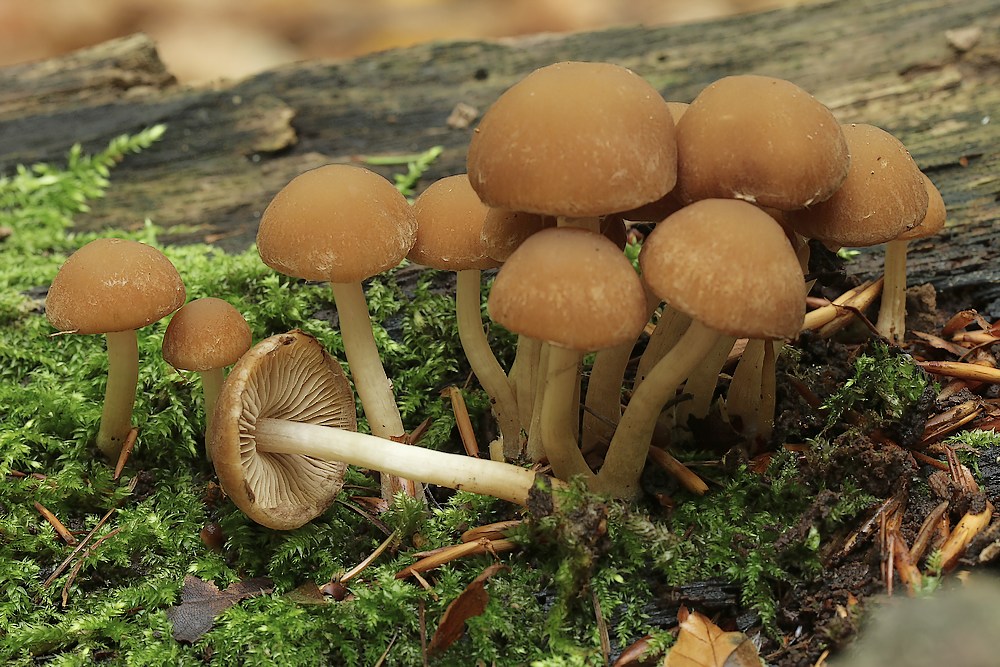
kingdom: Fungi
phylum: Basidiomycota
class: Agaricomycetes
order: Agaricales
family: Psathyrellaceae
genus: Psathyrella
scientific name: Psathyrella piluliformis
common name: lysstokket mørkhat
